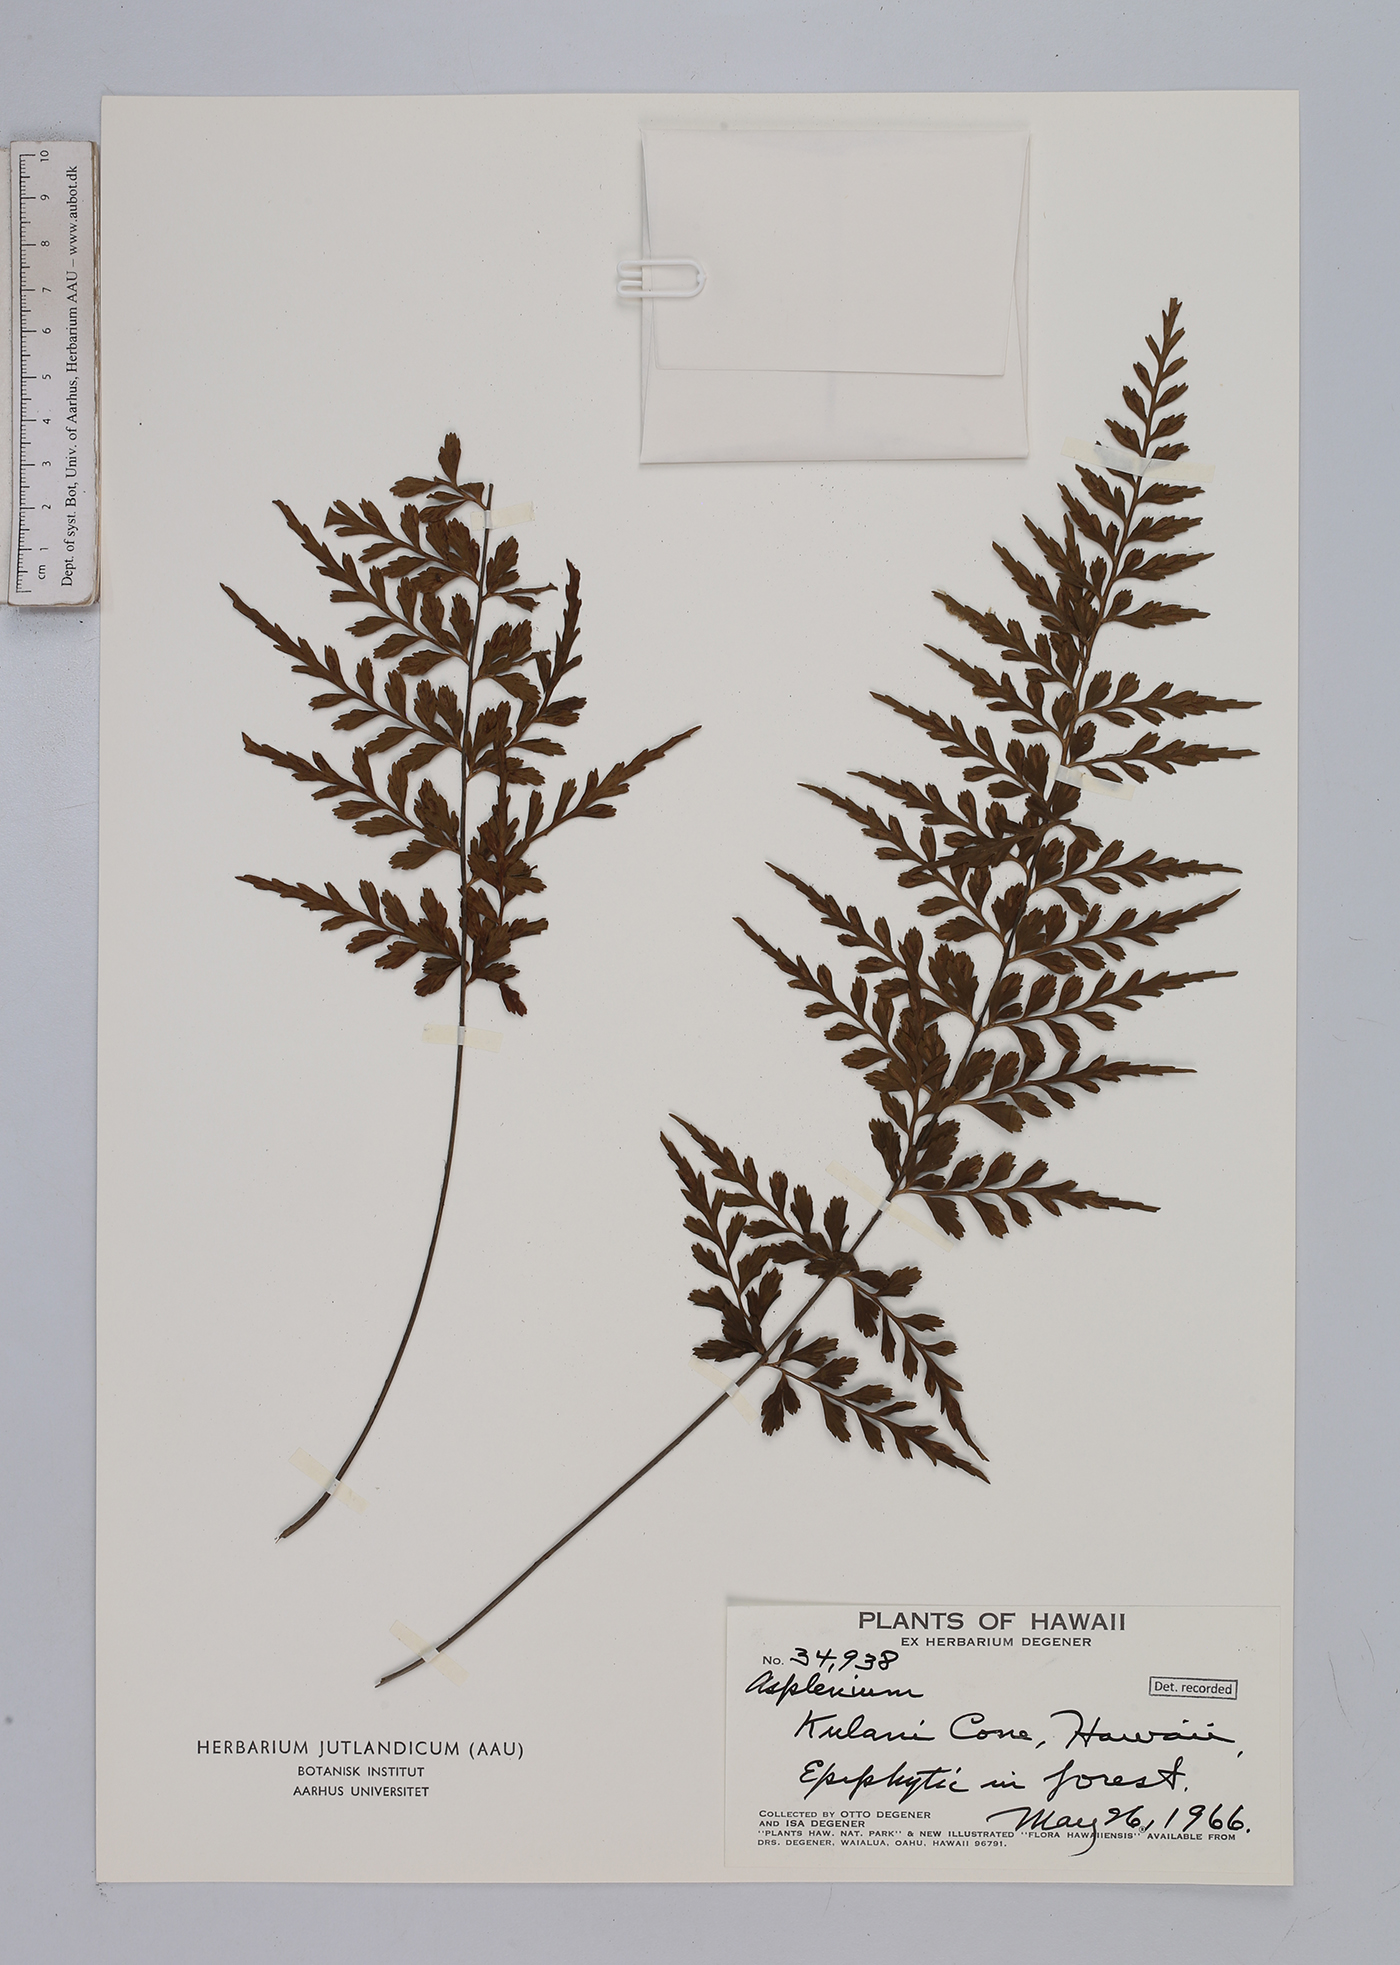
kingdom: Plantae
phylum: Tracheophyta
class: Polypodiopsida
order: Polypodiales
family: Aspleniaceae
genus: Asplenium
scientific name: Asplenium
